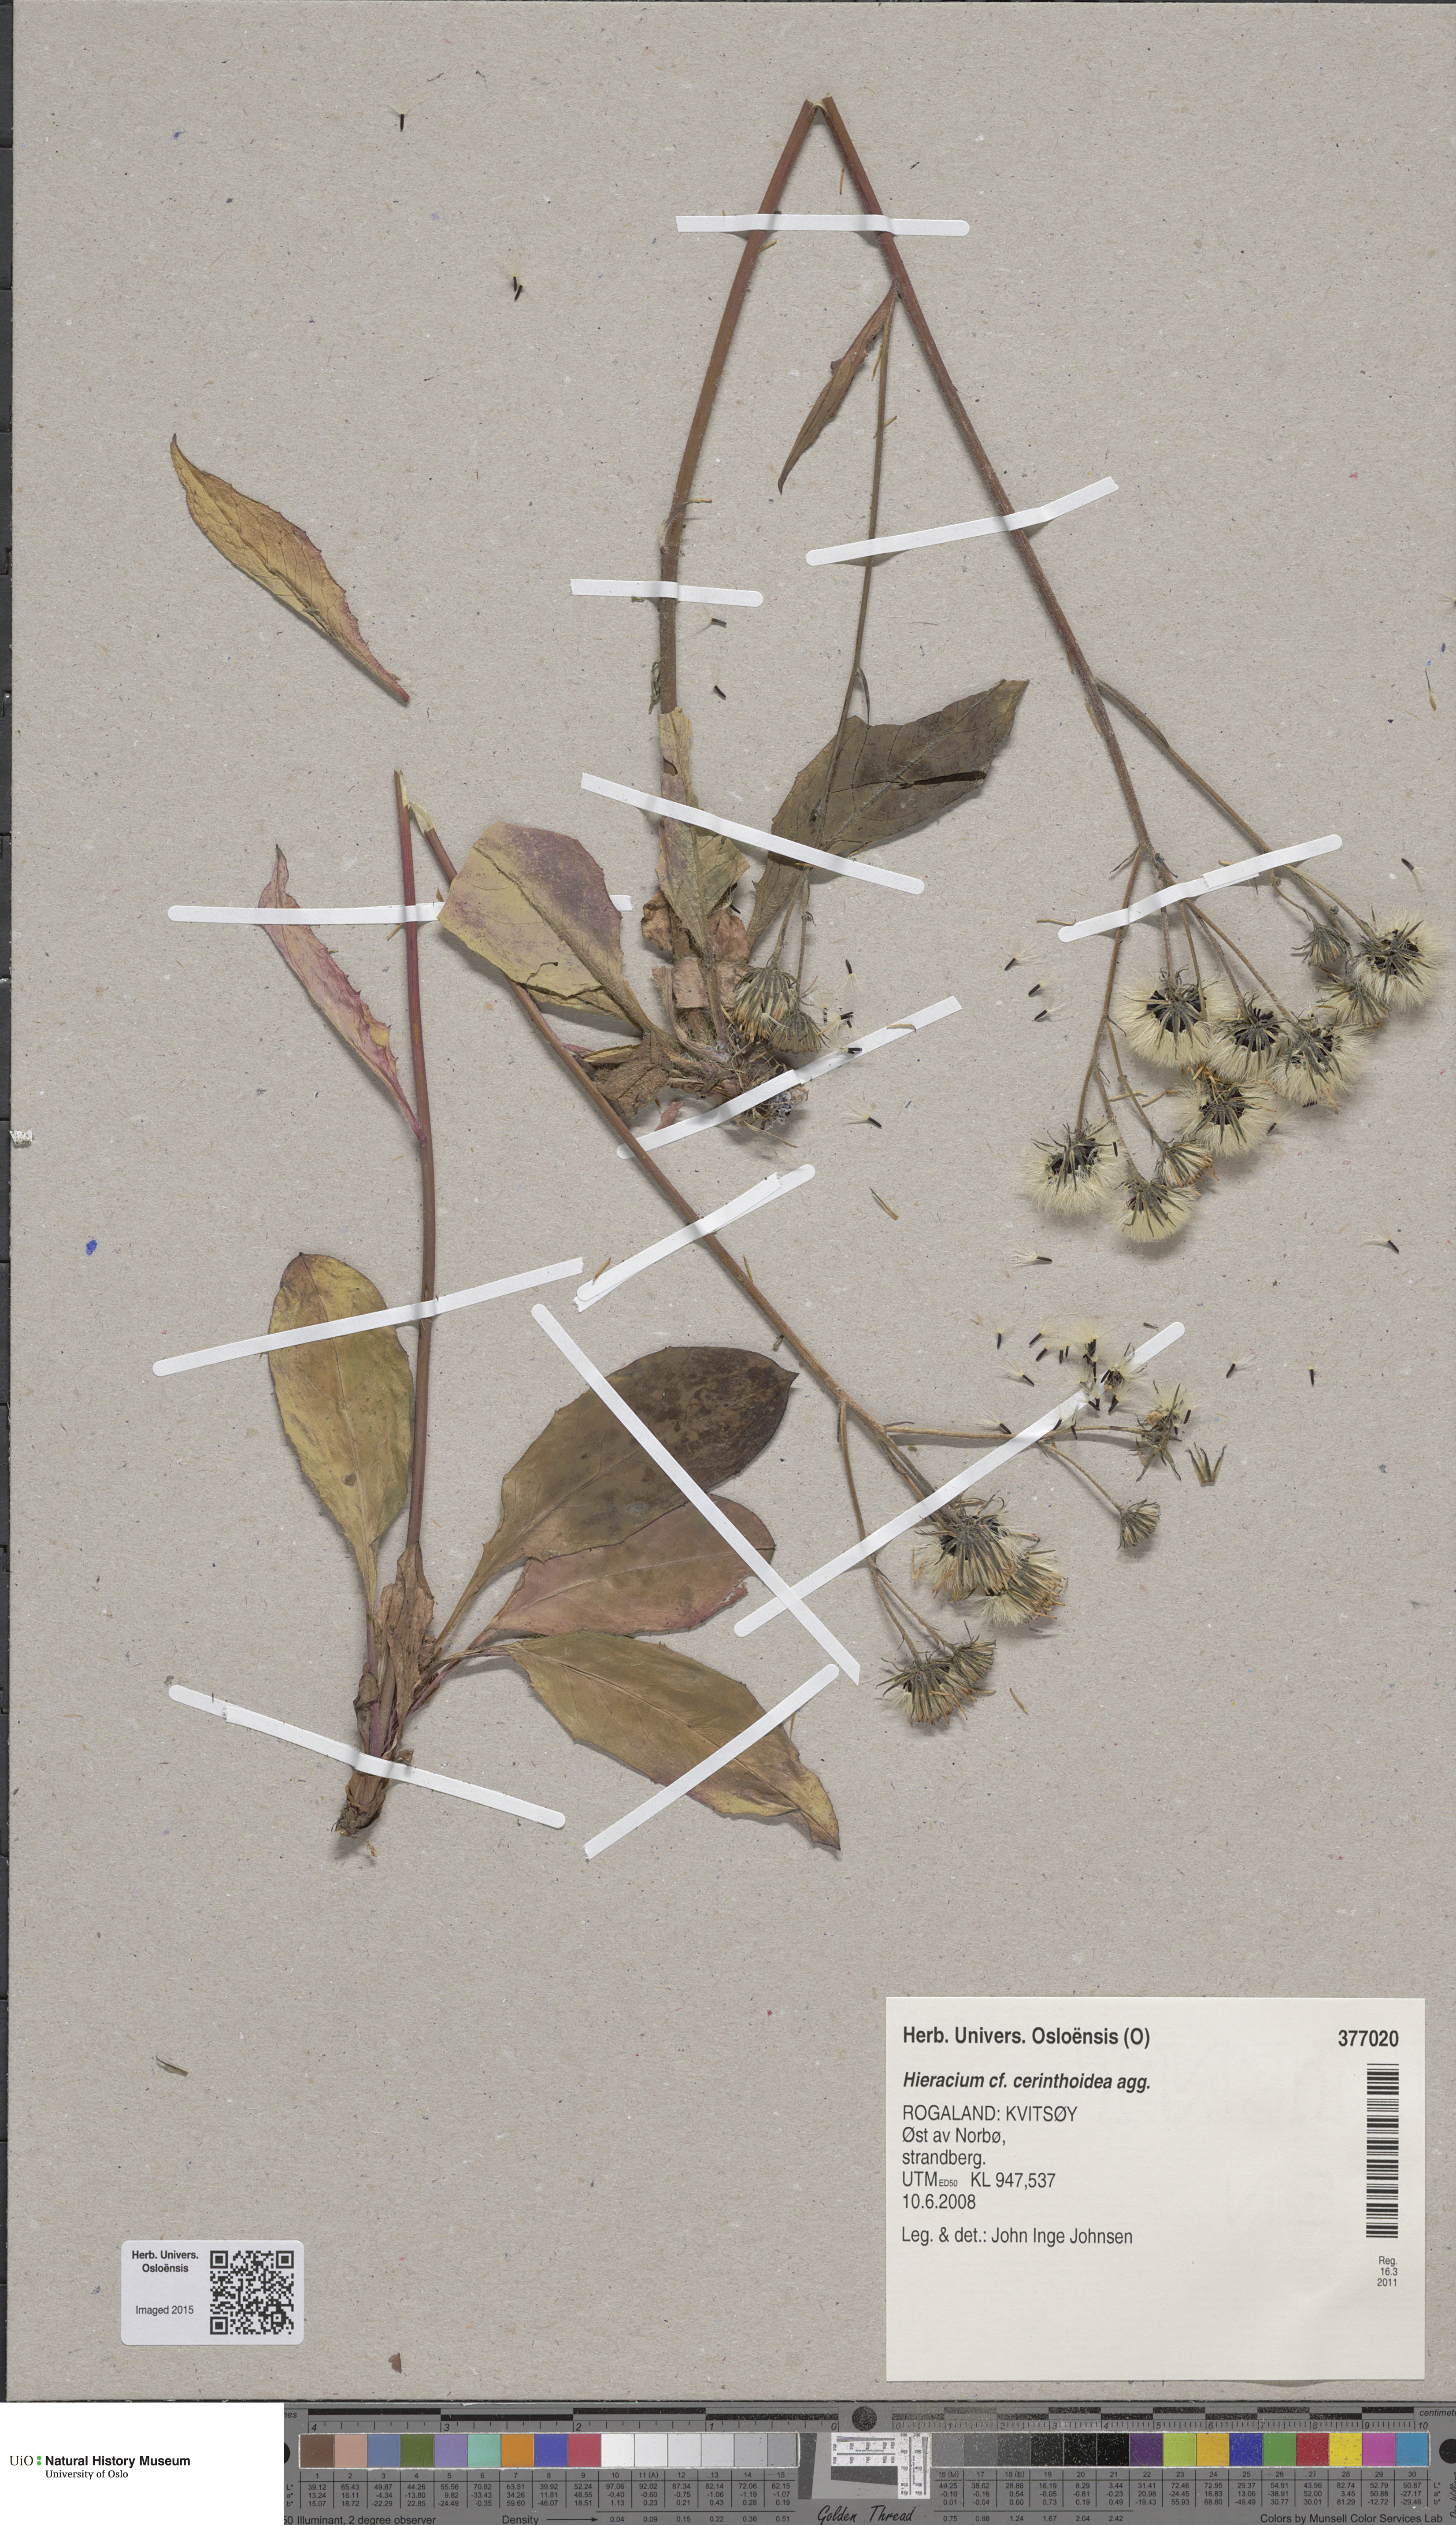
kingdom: Plantae
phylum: Tracheophyta
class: Magnoliopsida
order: Asterales
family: Asteraceae
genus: Hieracium
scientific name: Hieracium cerinthoides
